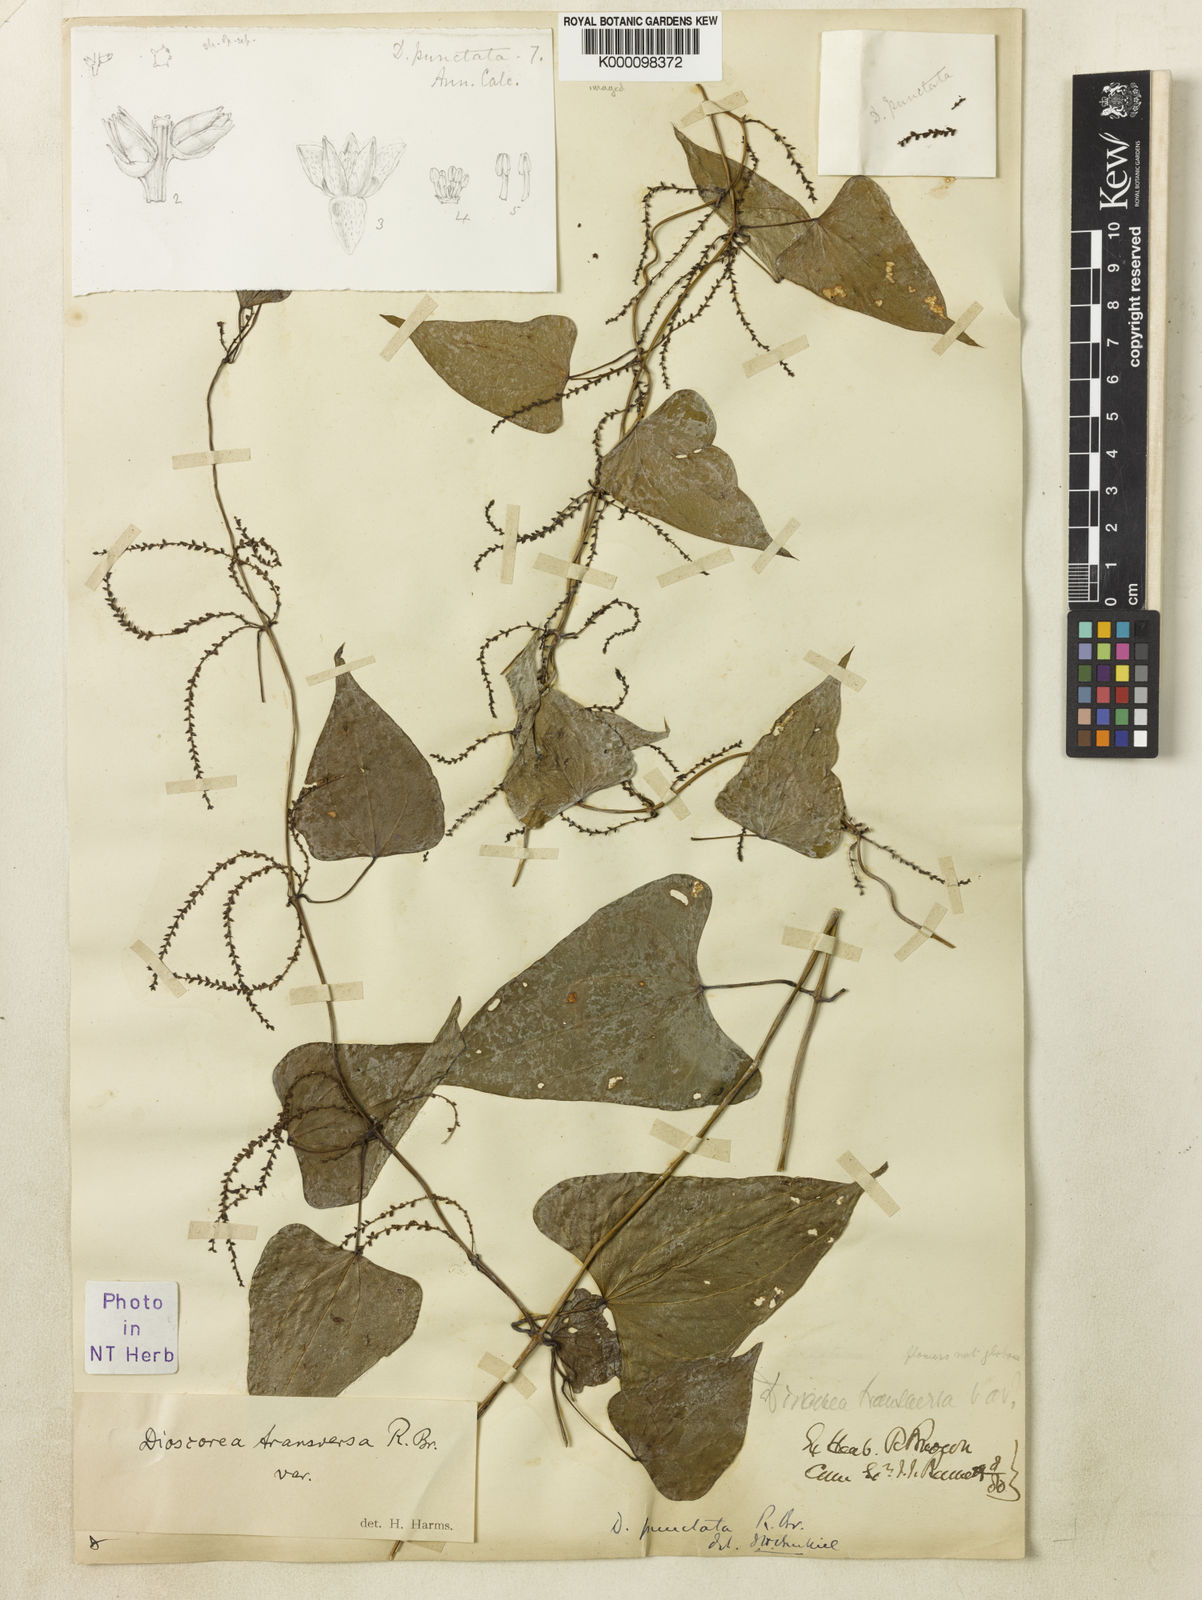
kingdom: Plantae
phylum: Tracheophyta
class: Liliopsida
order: Dioscoreales
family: Dioscoreaceae
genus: Dioscorea
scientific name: Dioscorea transversa
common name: Long yam
